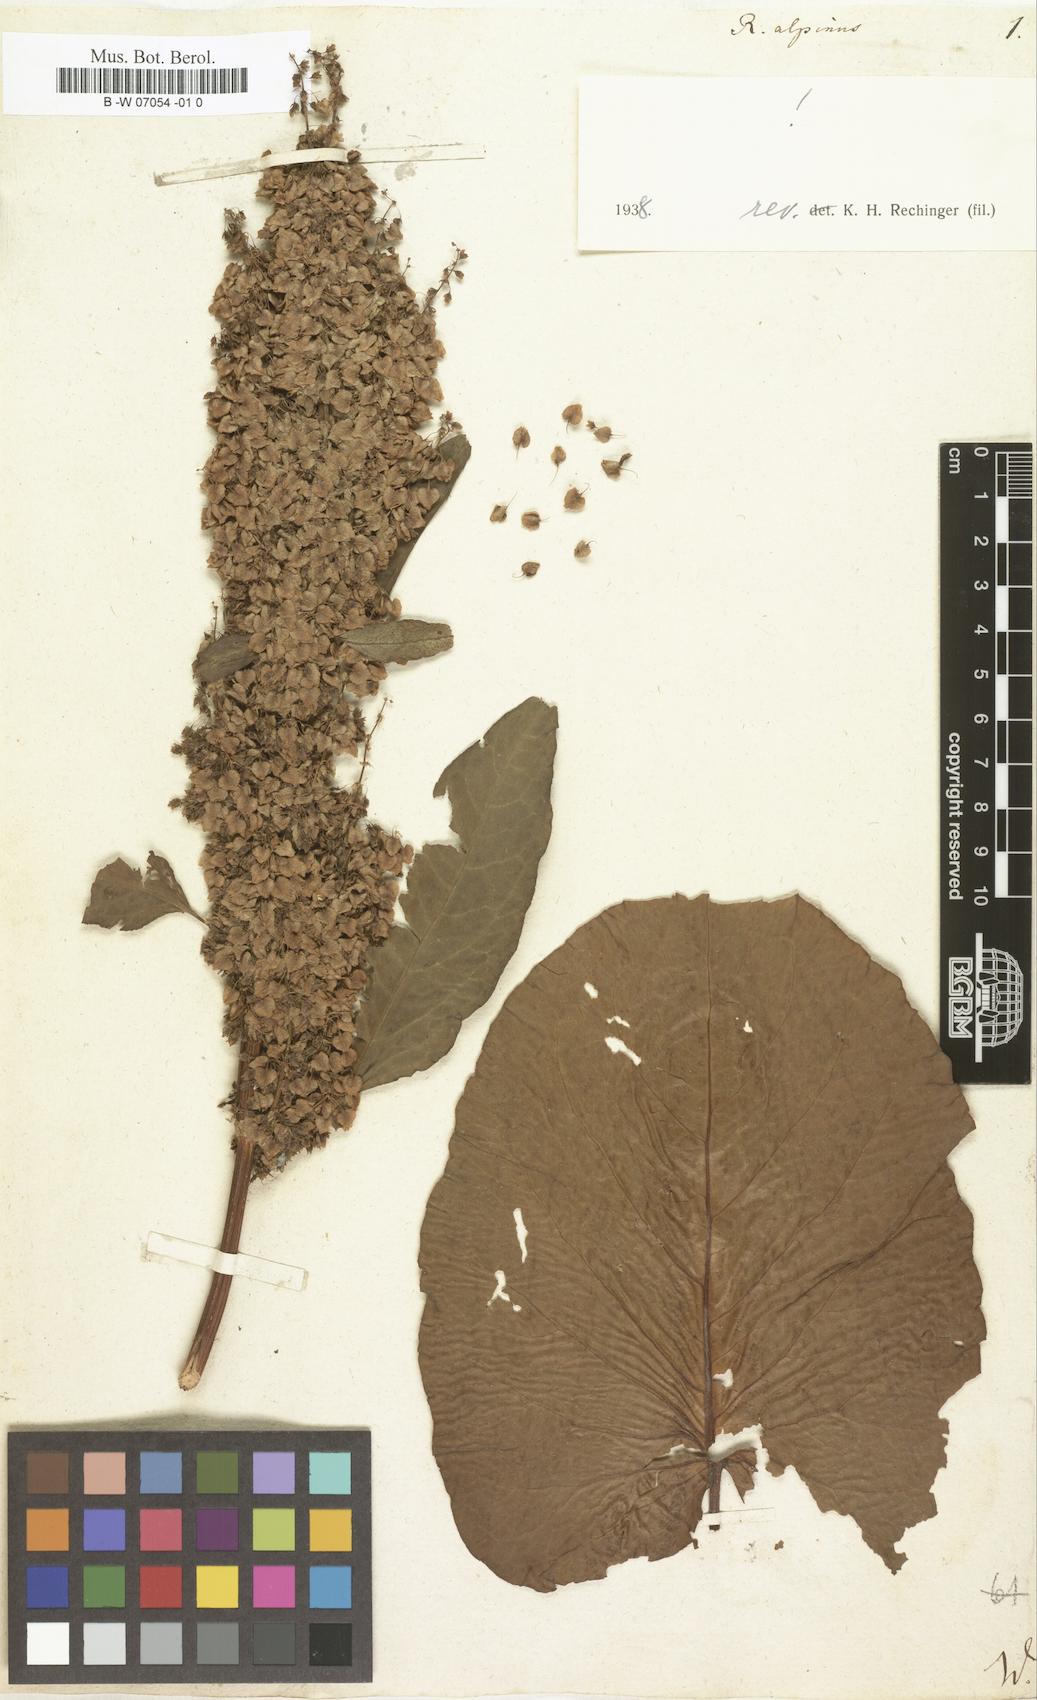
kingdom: Plantae
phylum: Tracheophyta
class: Magnoliopsida
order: Caryophyllales
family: Polygonaceae
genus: Rumex
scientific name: Rumex alpinus
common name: Alpine dock
